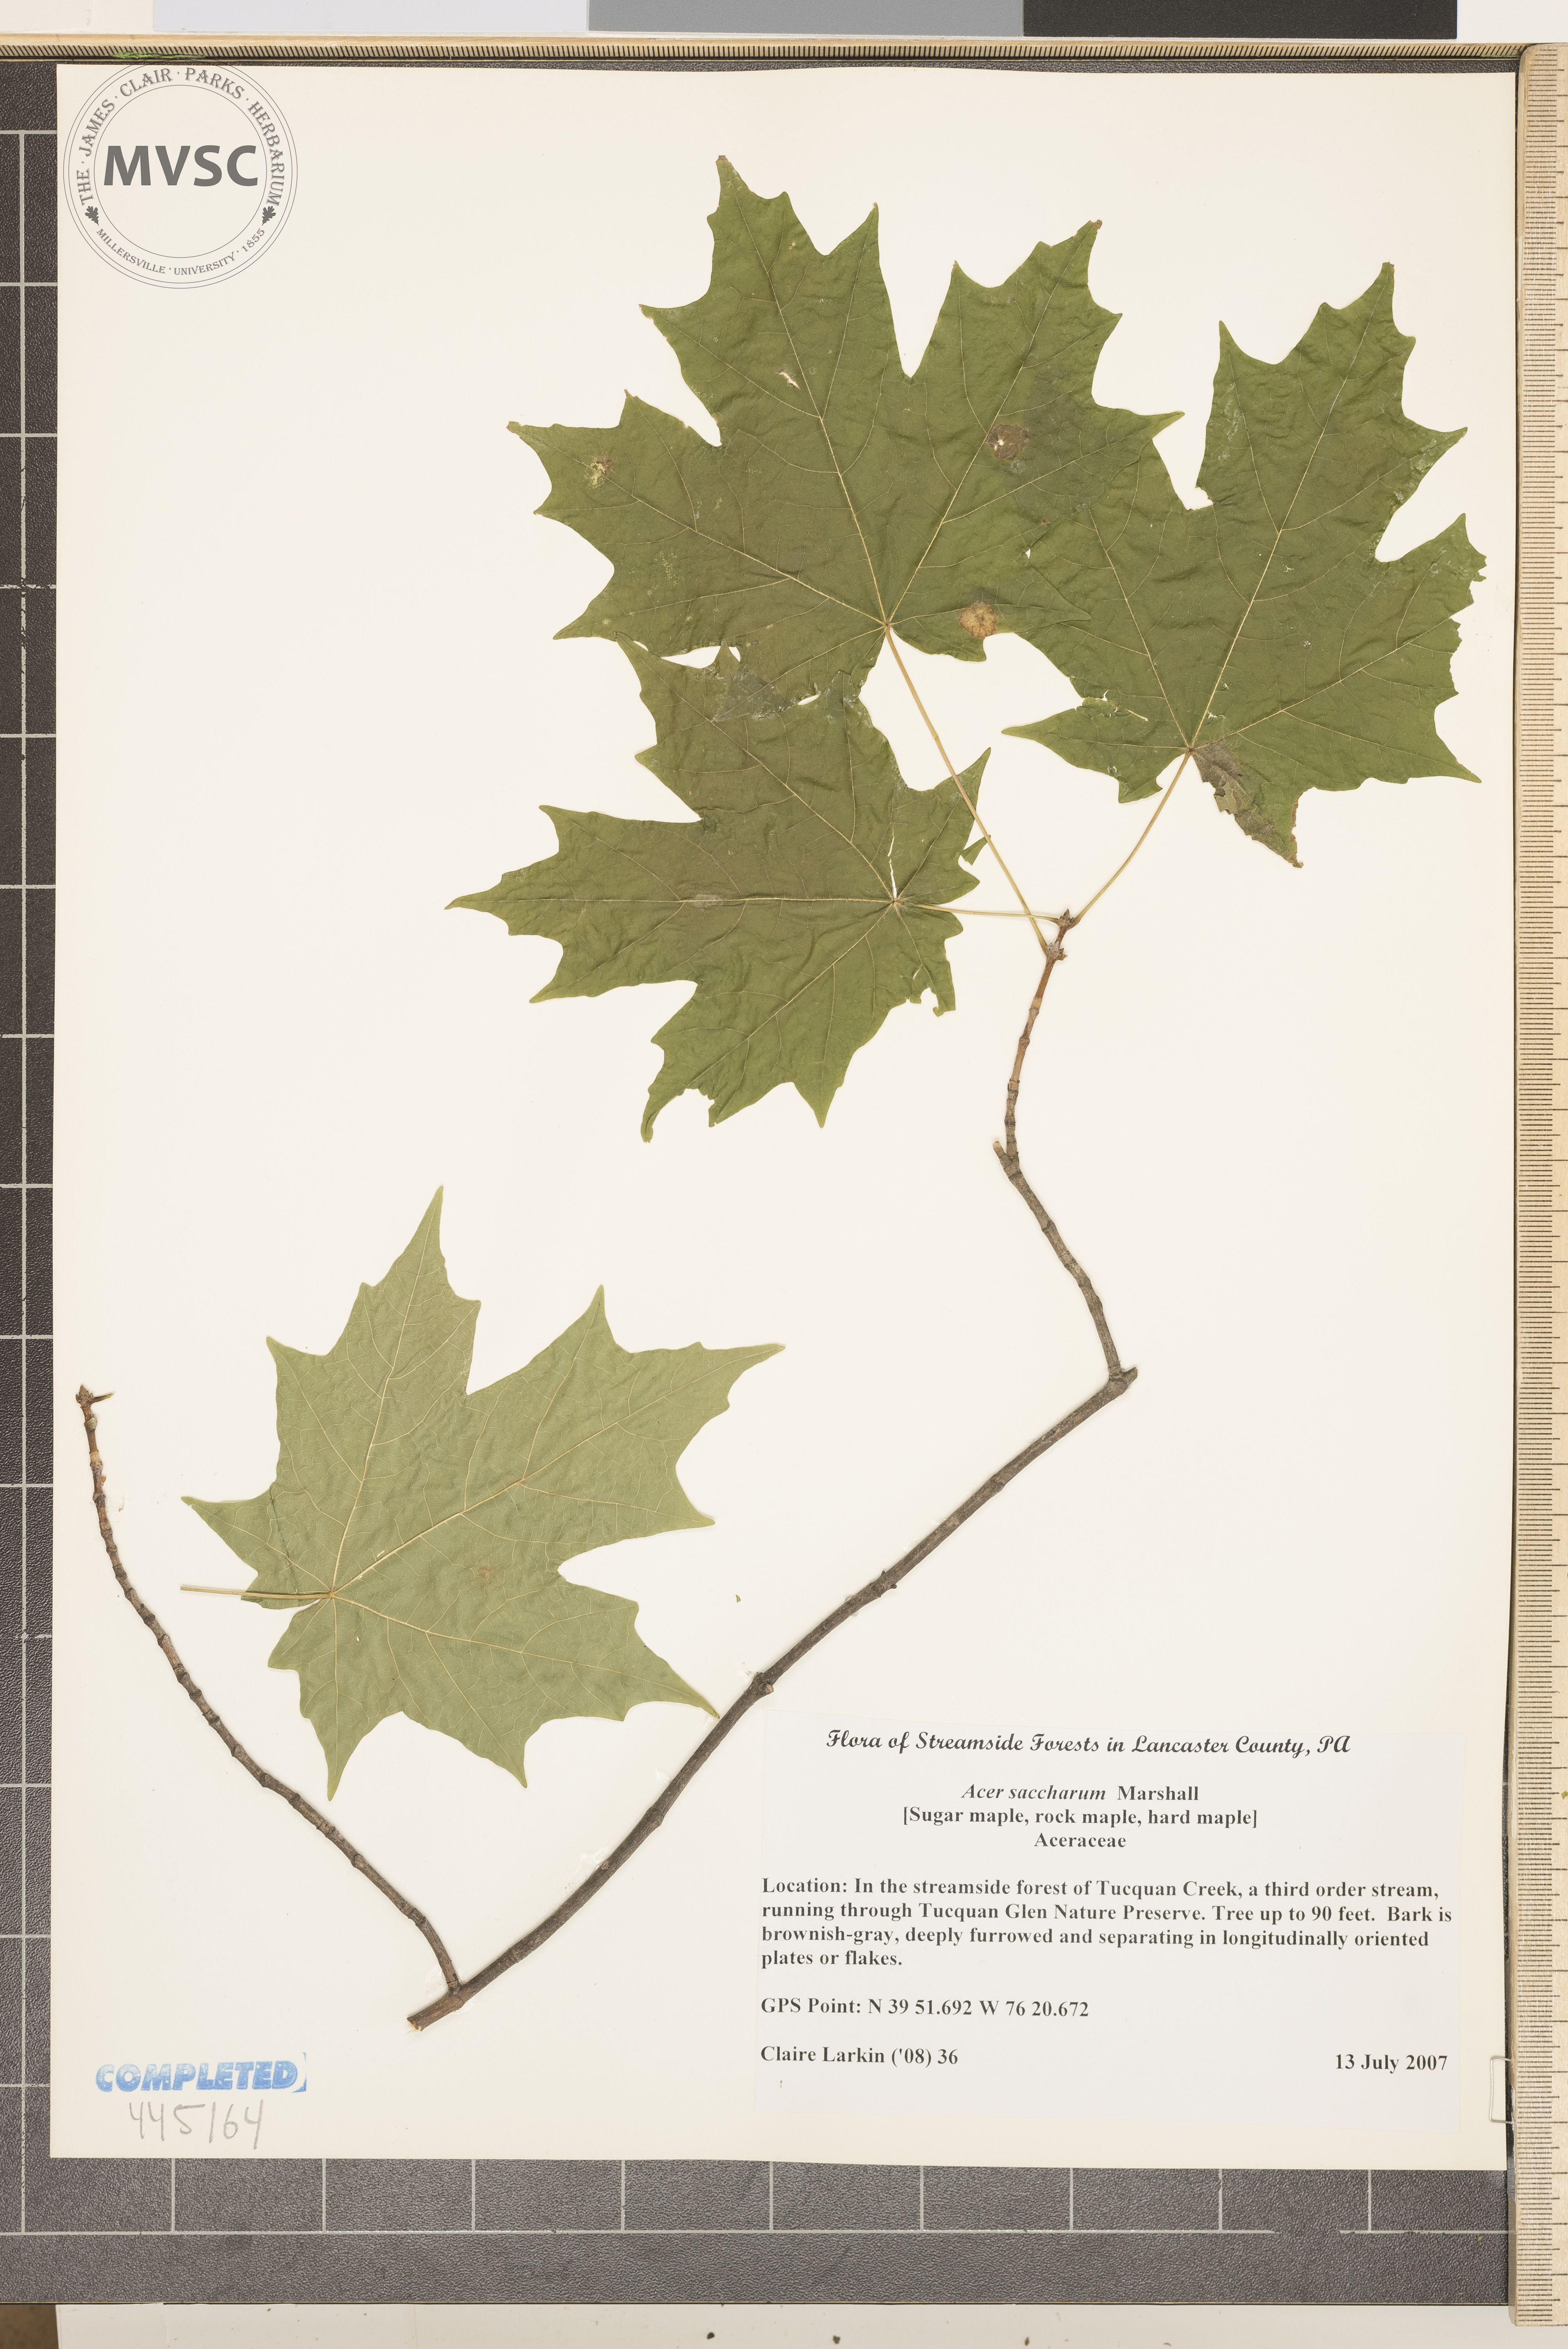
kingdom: Plantae
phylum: Tracheophyta
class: Magnoliopsida
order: Sapindales
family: Sapindaceae
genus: Acer
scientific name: Acer saccharum
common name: Sugar maple
